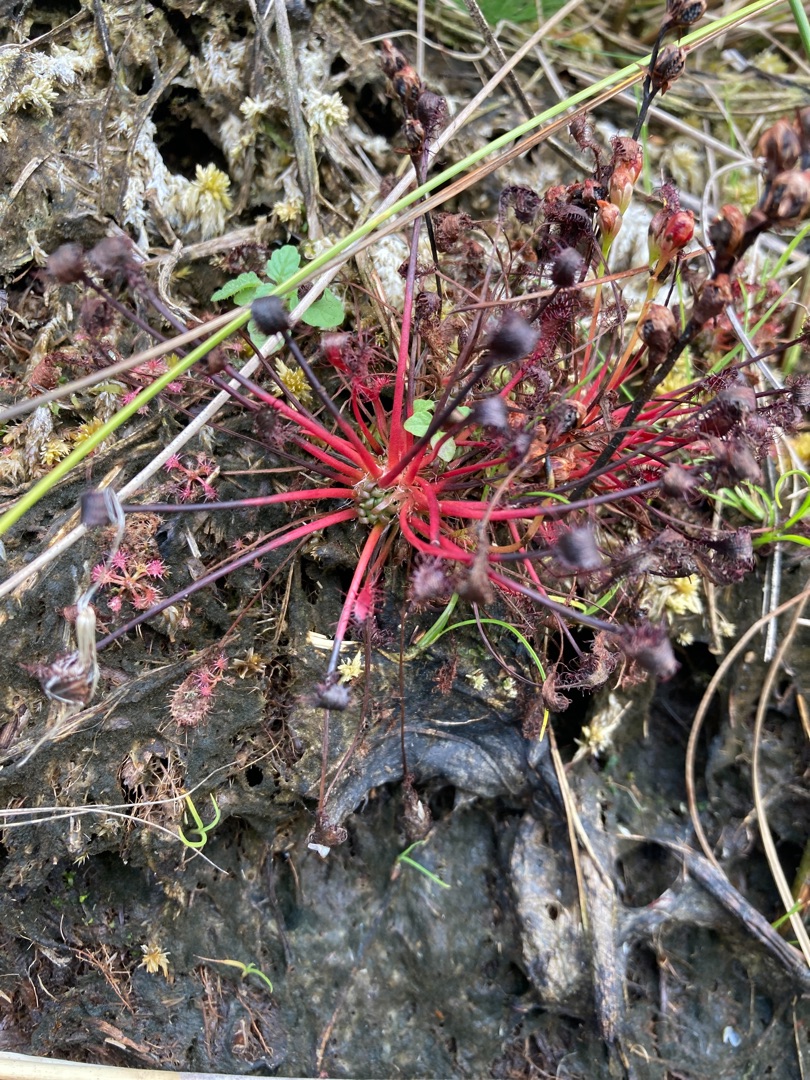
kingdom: Plantae
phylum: Tracheophyta
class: Magnoliopsida
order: Caryophyllales
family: Droseraceae
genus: Drosera
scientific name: Drosera intermedia
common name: Liden soldug
